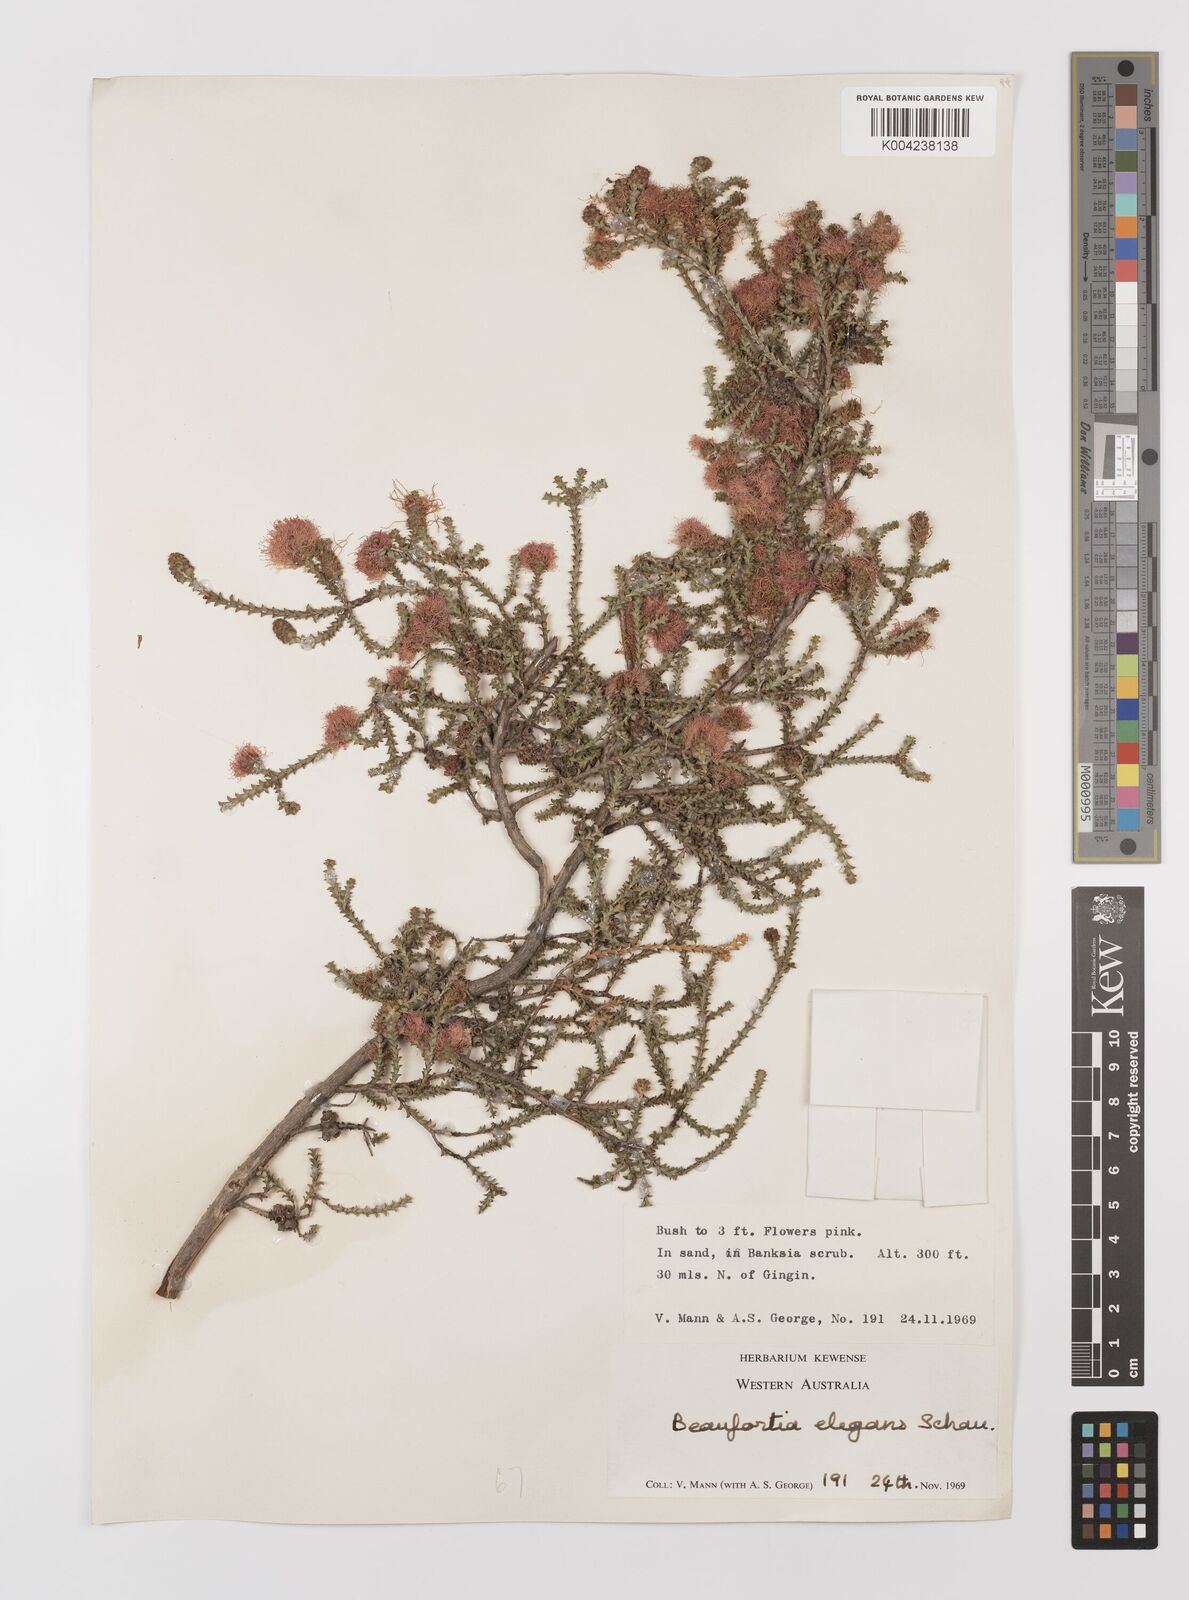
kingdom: Plantae
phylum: Tracheophyta
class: Magnoliopsida
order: Myrtales
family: Myrtaceae
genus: Melaleuca
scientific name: Melaleuca scitula
